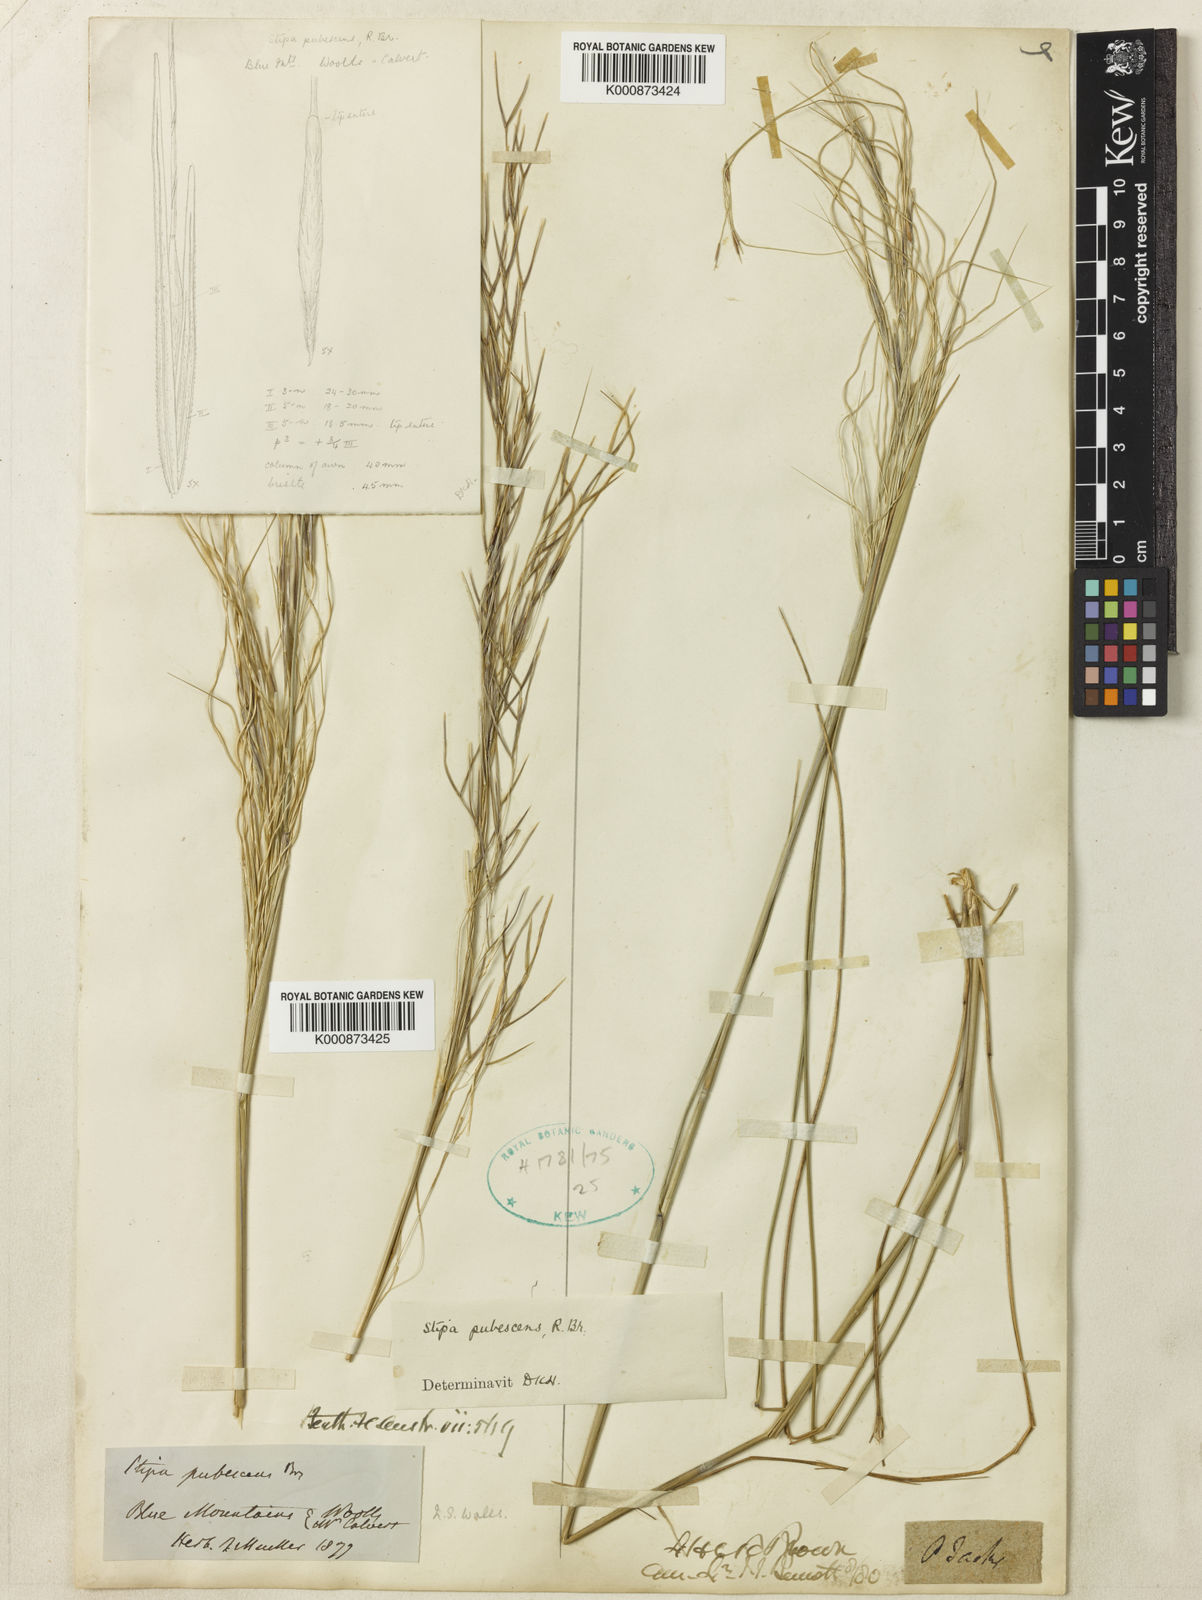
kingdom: Plantae
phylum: Tracheophyta
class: Liliopsida
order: Poales
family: Poaceae
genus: Austrostipa
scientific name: Austrostipa pubescens
